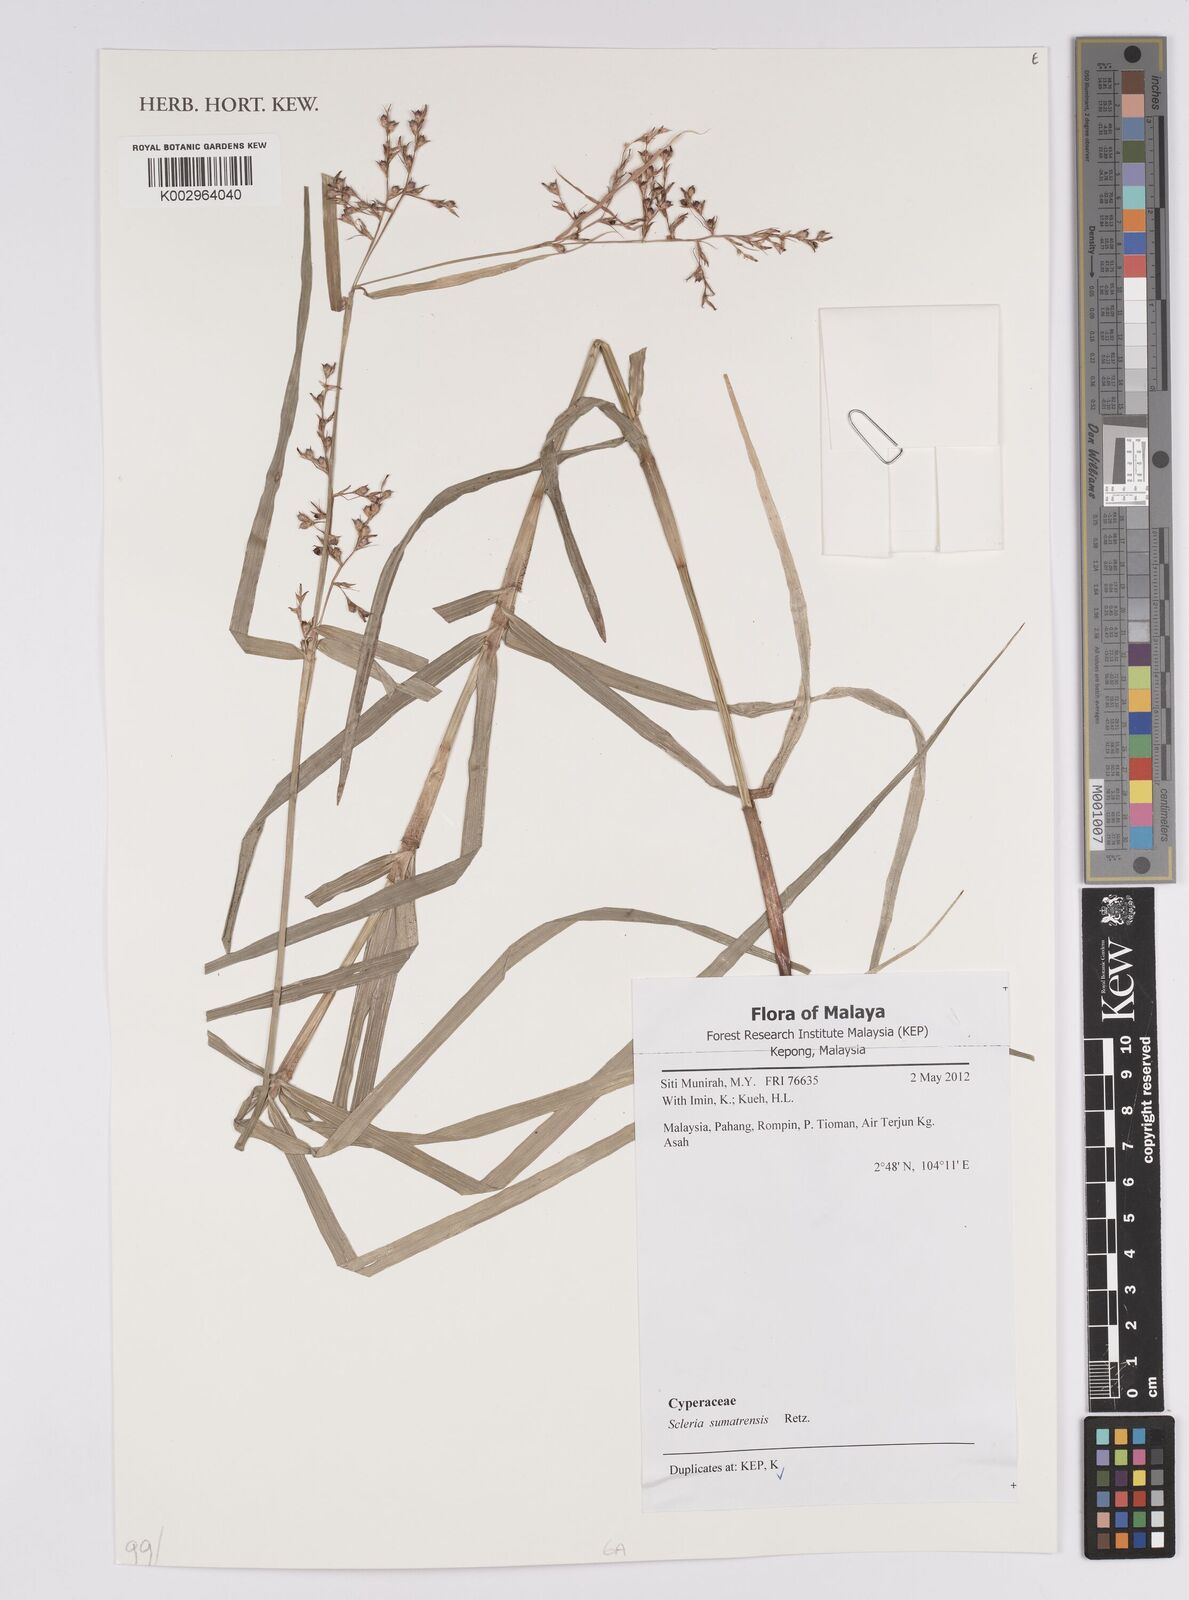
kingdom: Plantae
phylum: Tracheophyta
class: Liliopsida
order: Poales
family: Cyperaceae
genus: Scleria
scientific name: Scleria sumatrensis
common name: Sumatran scleria
